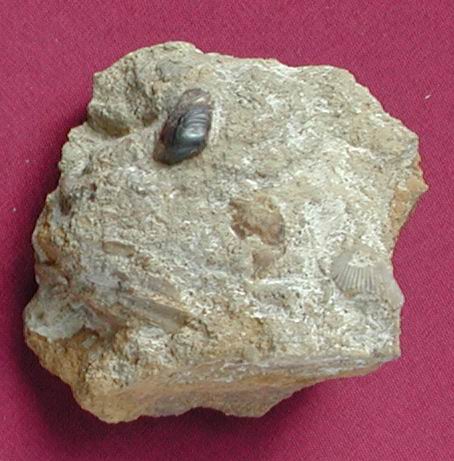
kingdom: Animalia
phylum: Chordata
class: Elasmobranchii
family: Acrodontidae
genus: Asteracanthus
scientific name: Asteracanthus
